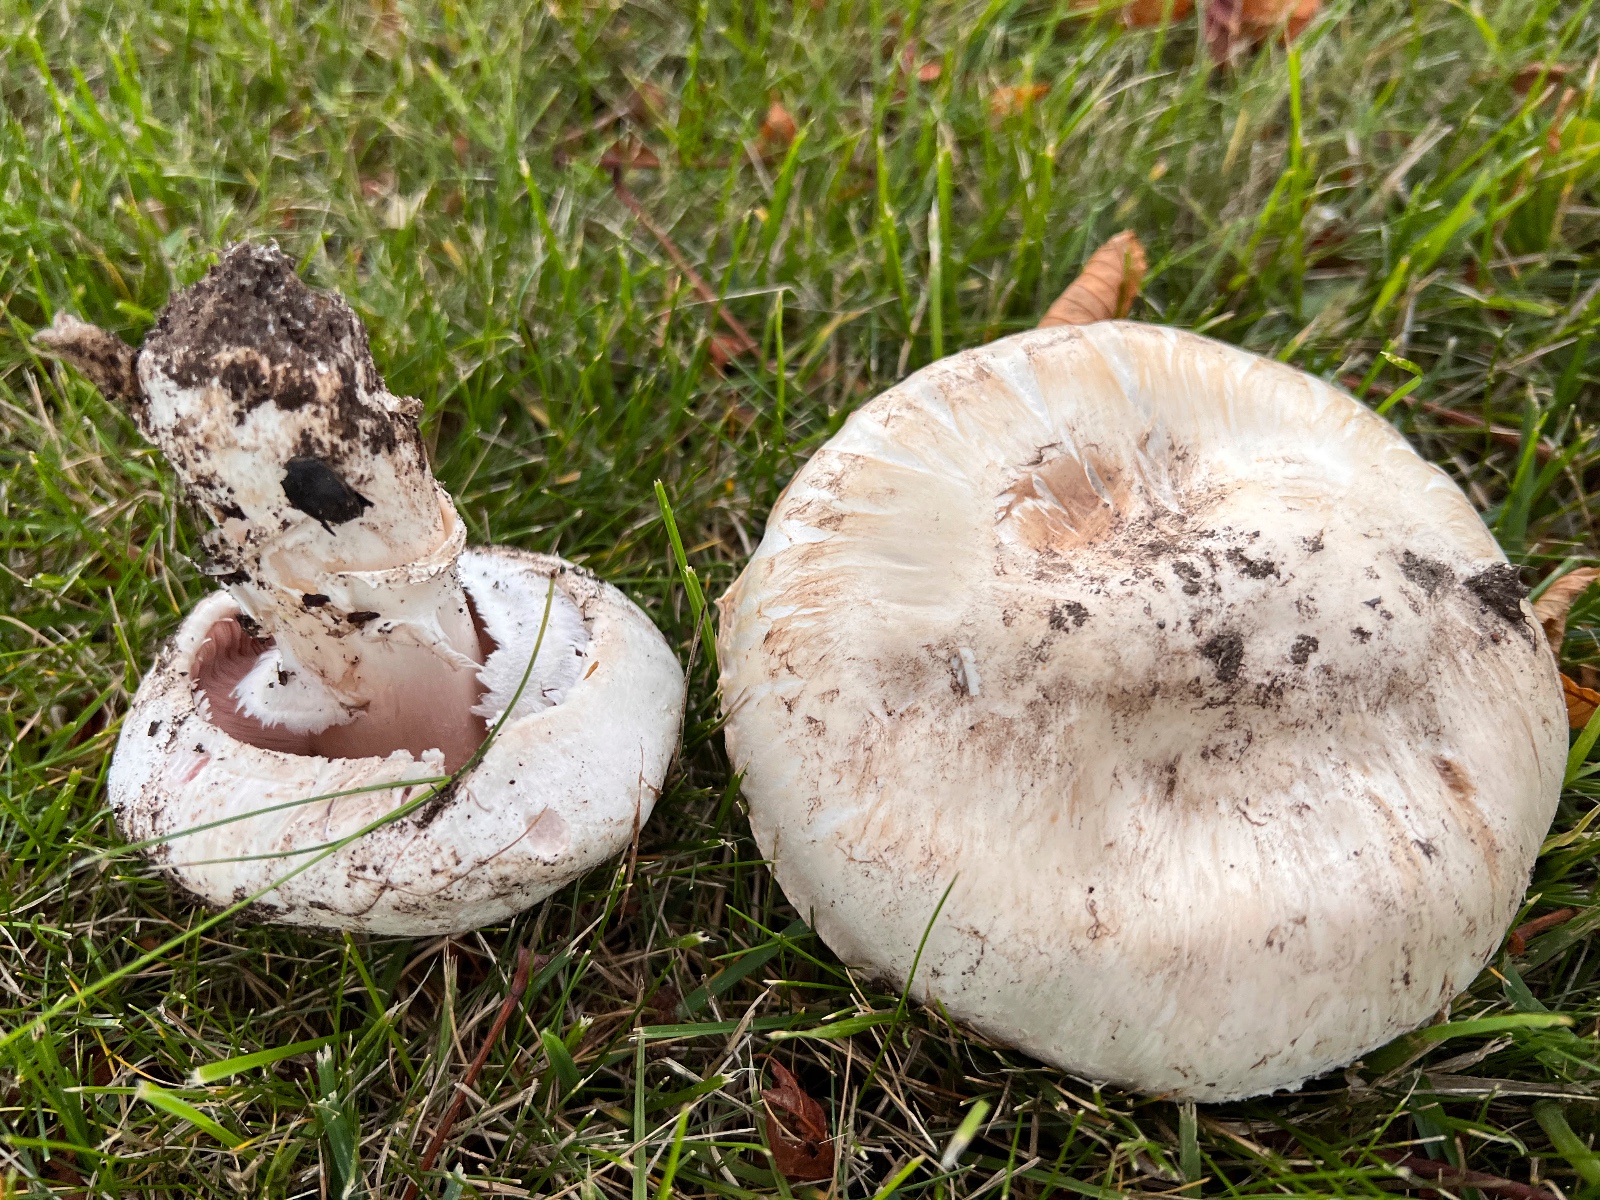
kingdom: Fungi
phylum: Basidiomycota
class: Agaricomycetes
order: Agaricales
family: Agaricaceae
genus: Agaricus
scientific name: Agaricus bitorquis
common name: vej-champignon
